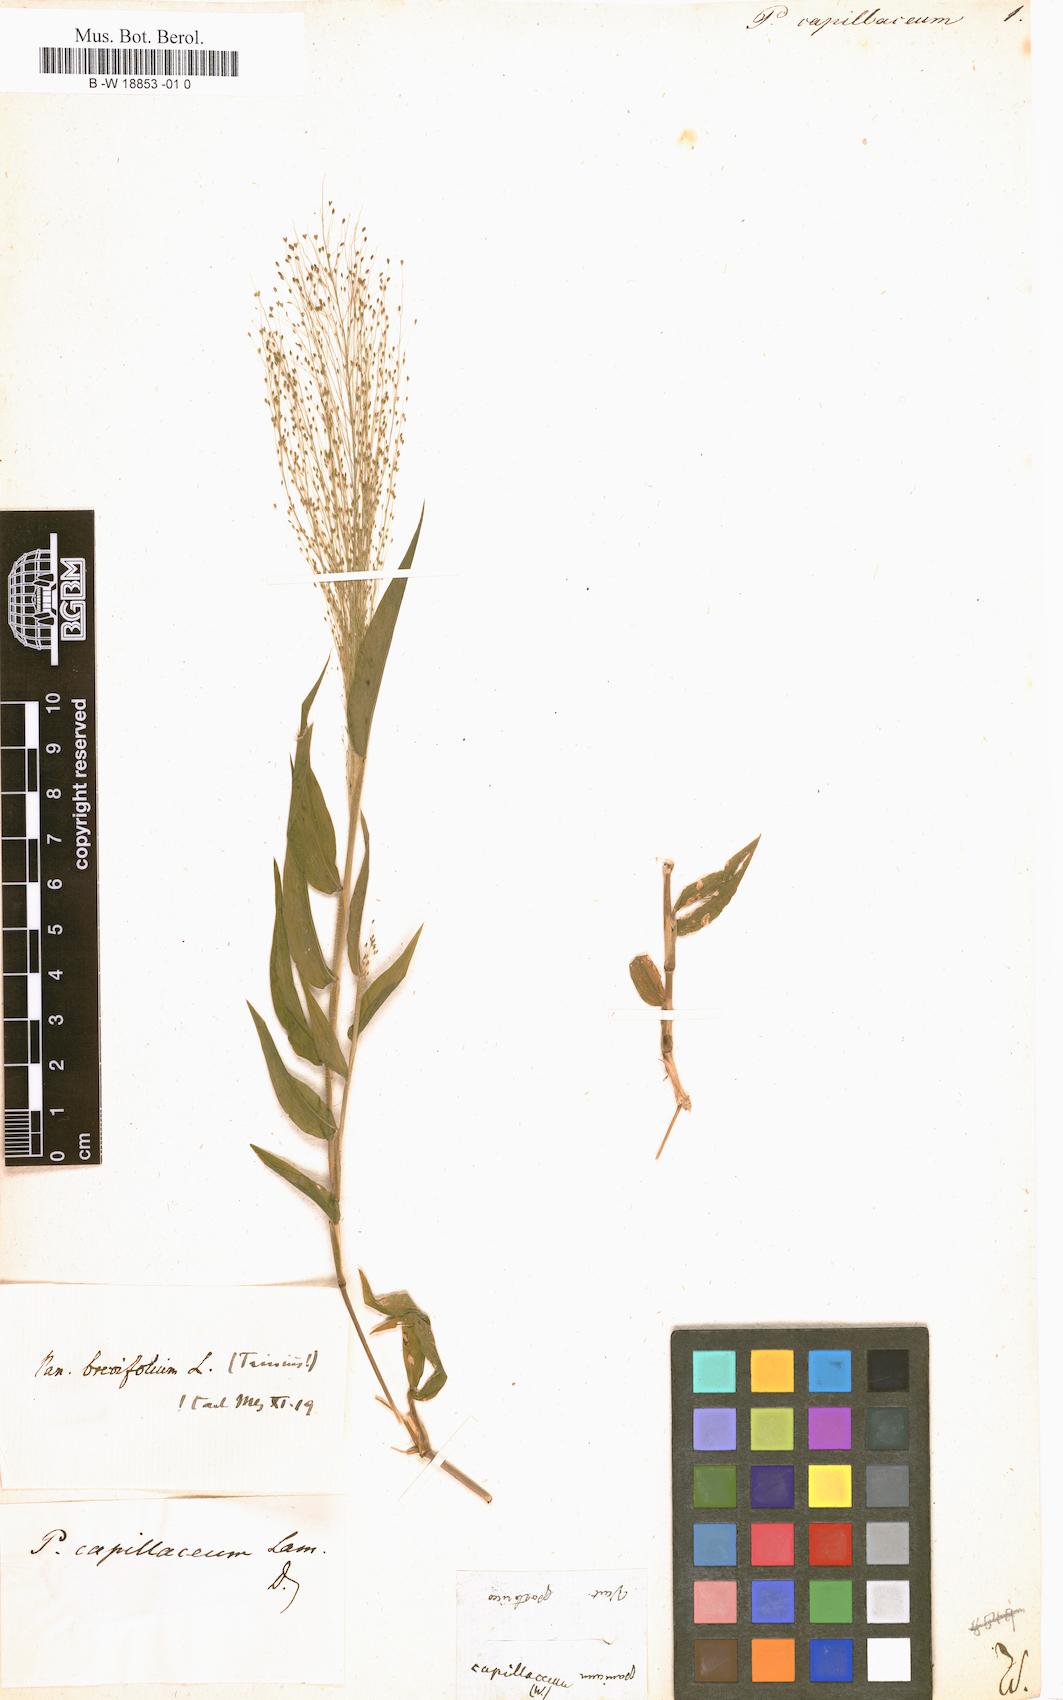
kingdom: Plantae
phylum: Tracheophyta
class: Liliopsida
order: Poales
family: Poaceae
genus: Panicum
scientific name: Panicum trichoides
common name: Tickle grass
